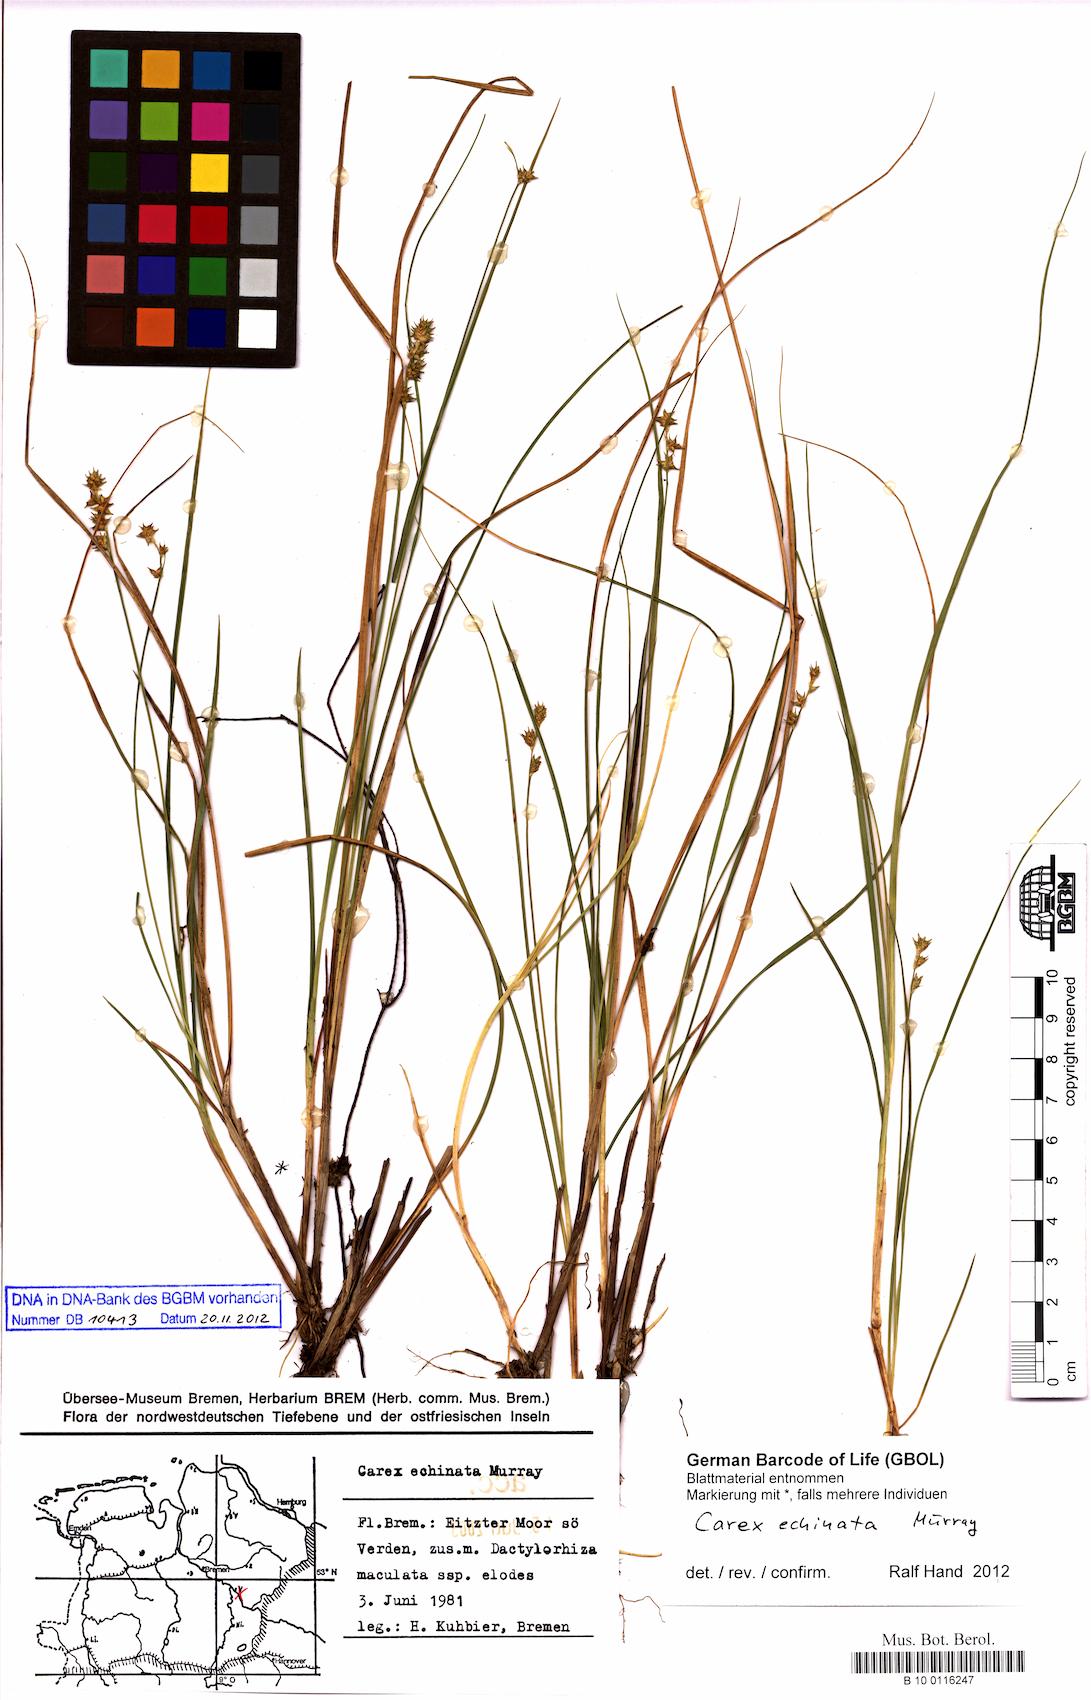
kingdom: Plantae
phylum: Tracheophyta
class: Liliopsida
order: Poales
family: Cyperaceae
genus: Carex
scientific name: Carex echinata
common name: Star sedge
